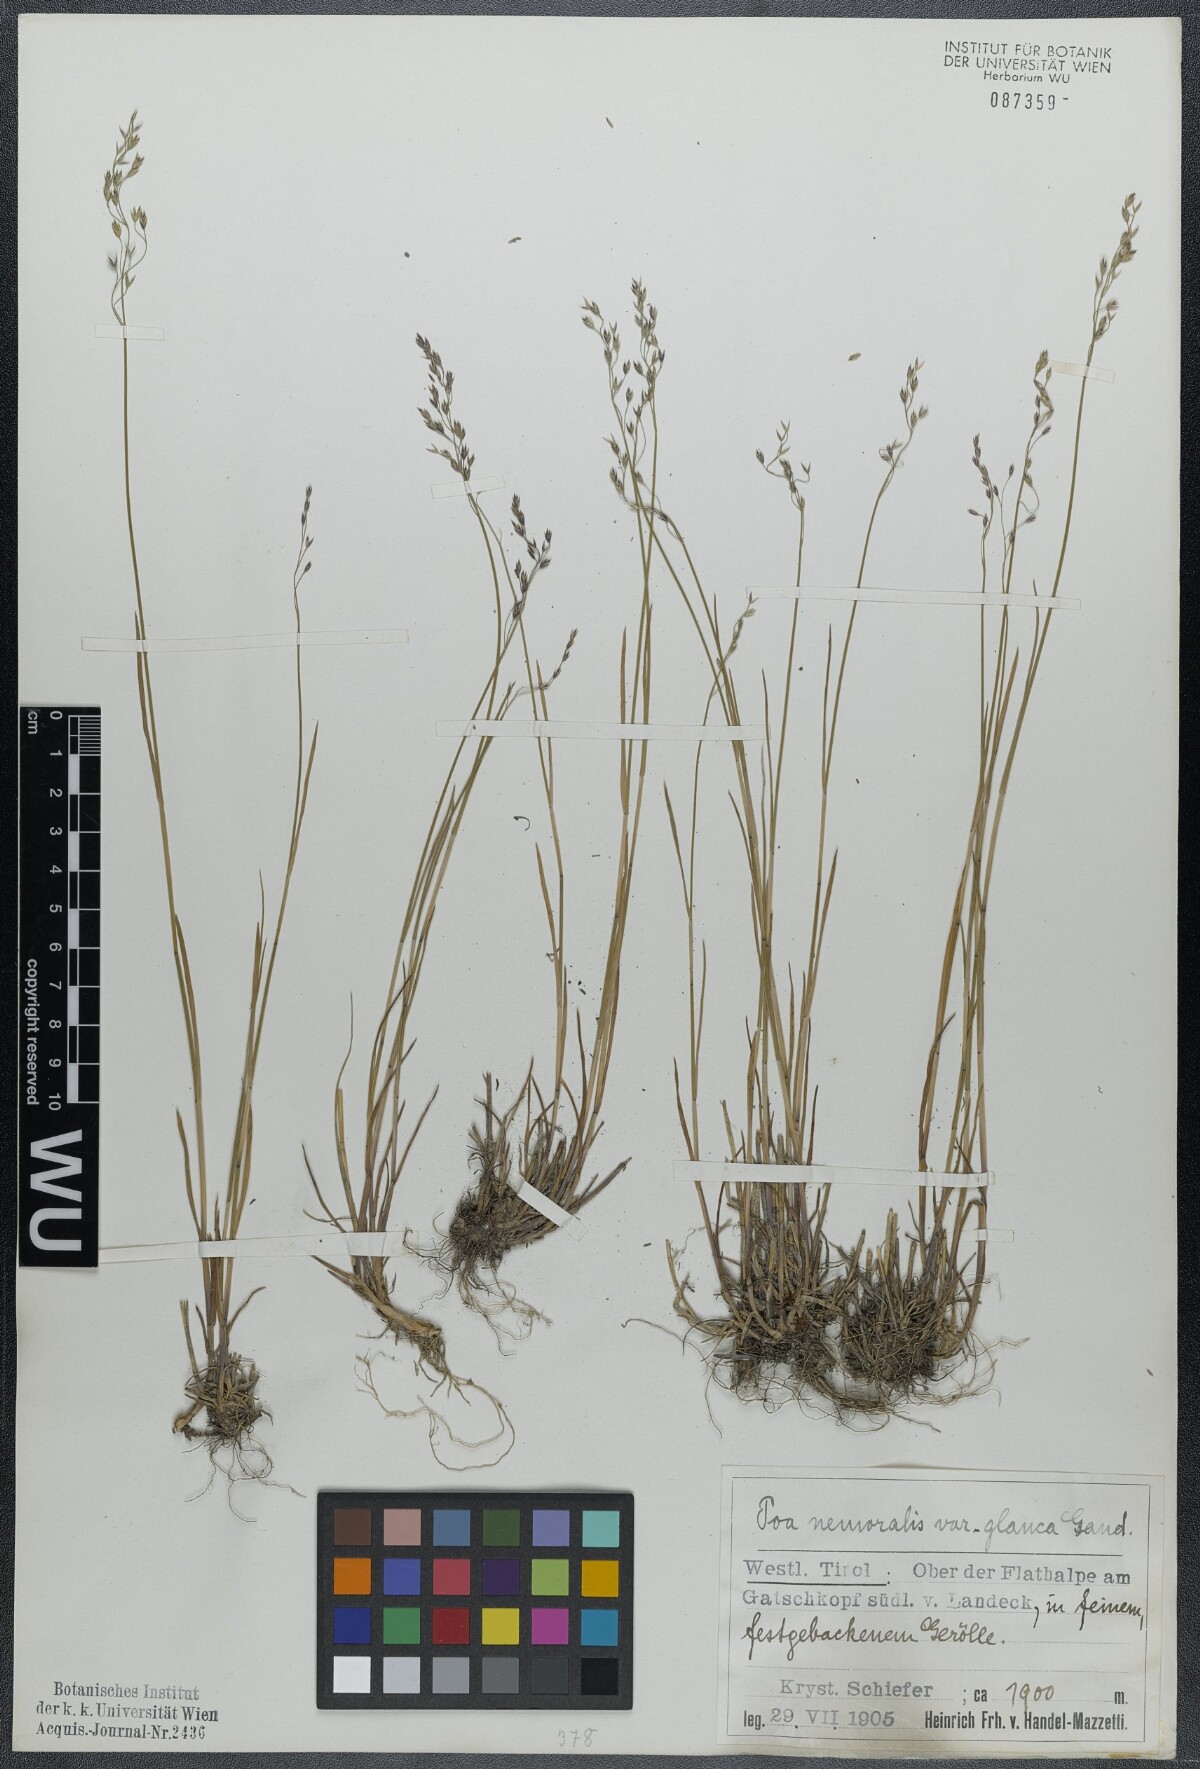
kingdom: Plantae
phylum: Tracheophyta
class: Liliopsida
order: Poales
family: Poaceae
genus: Poa
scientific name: Poa glauca
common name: Glaucous bluegrass
